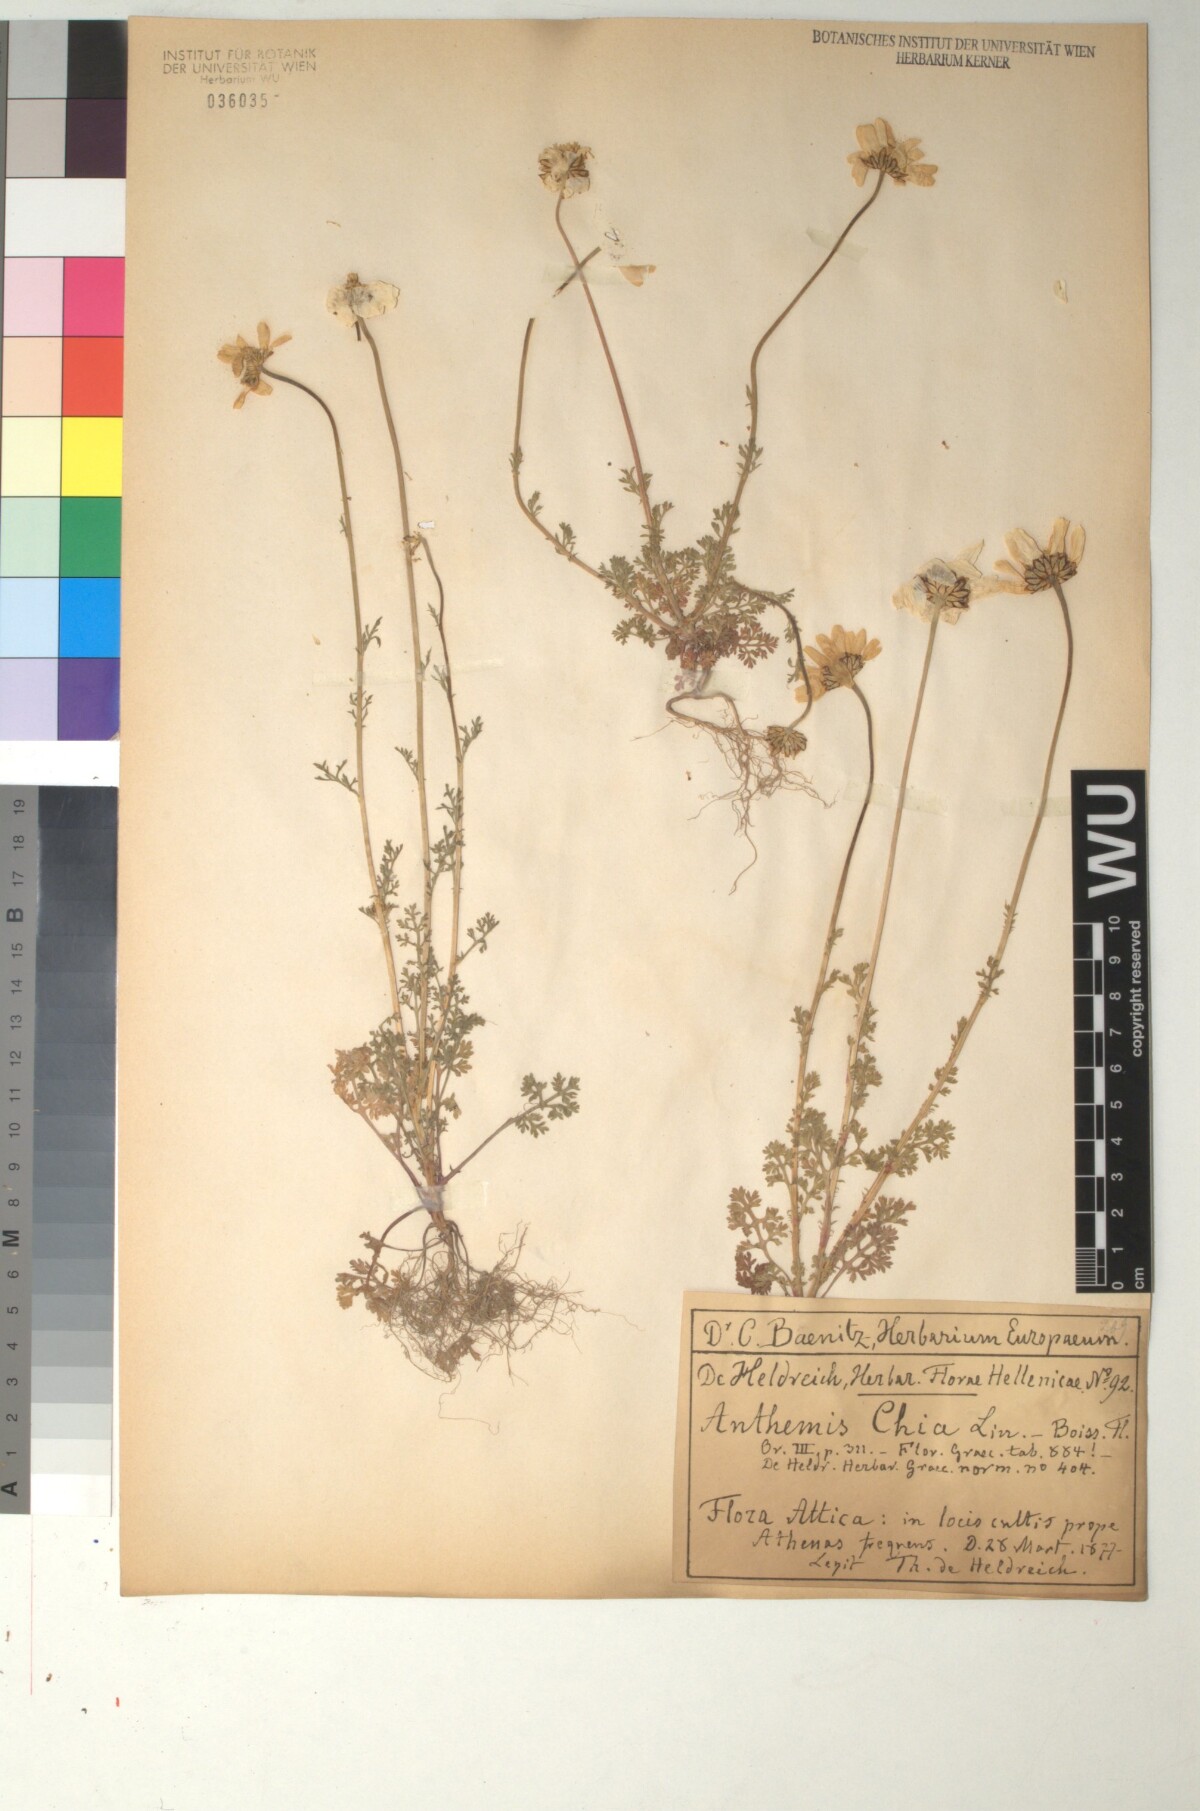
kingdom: Plantae
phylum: Tracheophyta
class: Magnoliopsida
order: Asterales
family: Asteraceae
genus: Anthemis
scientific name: Anthemis chia
